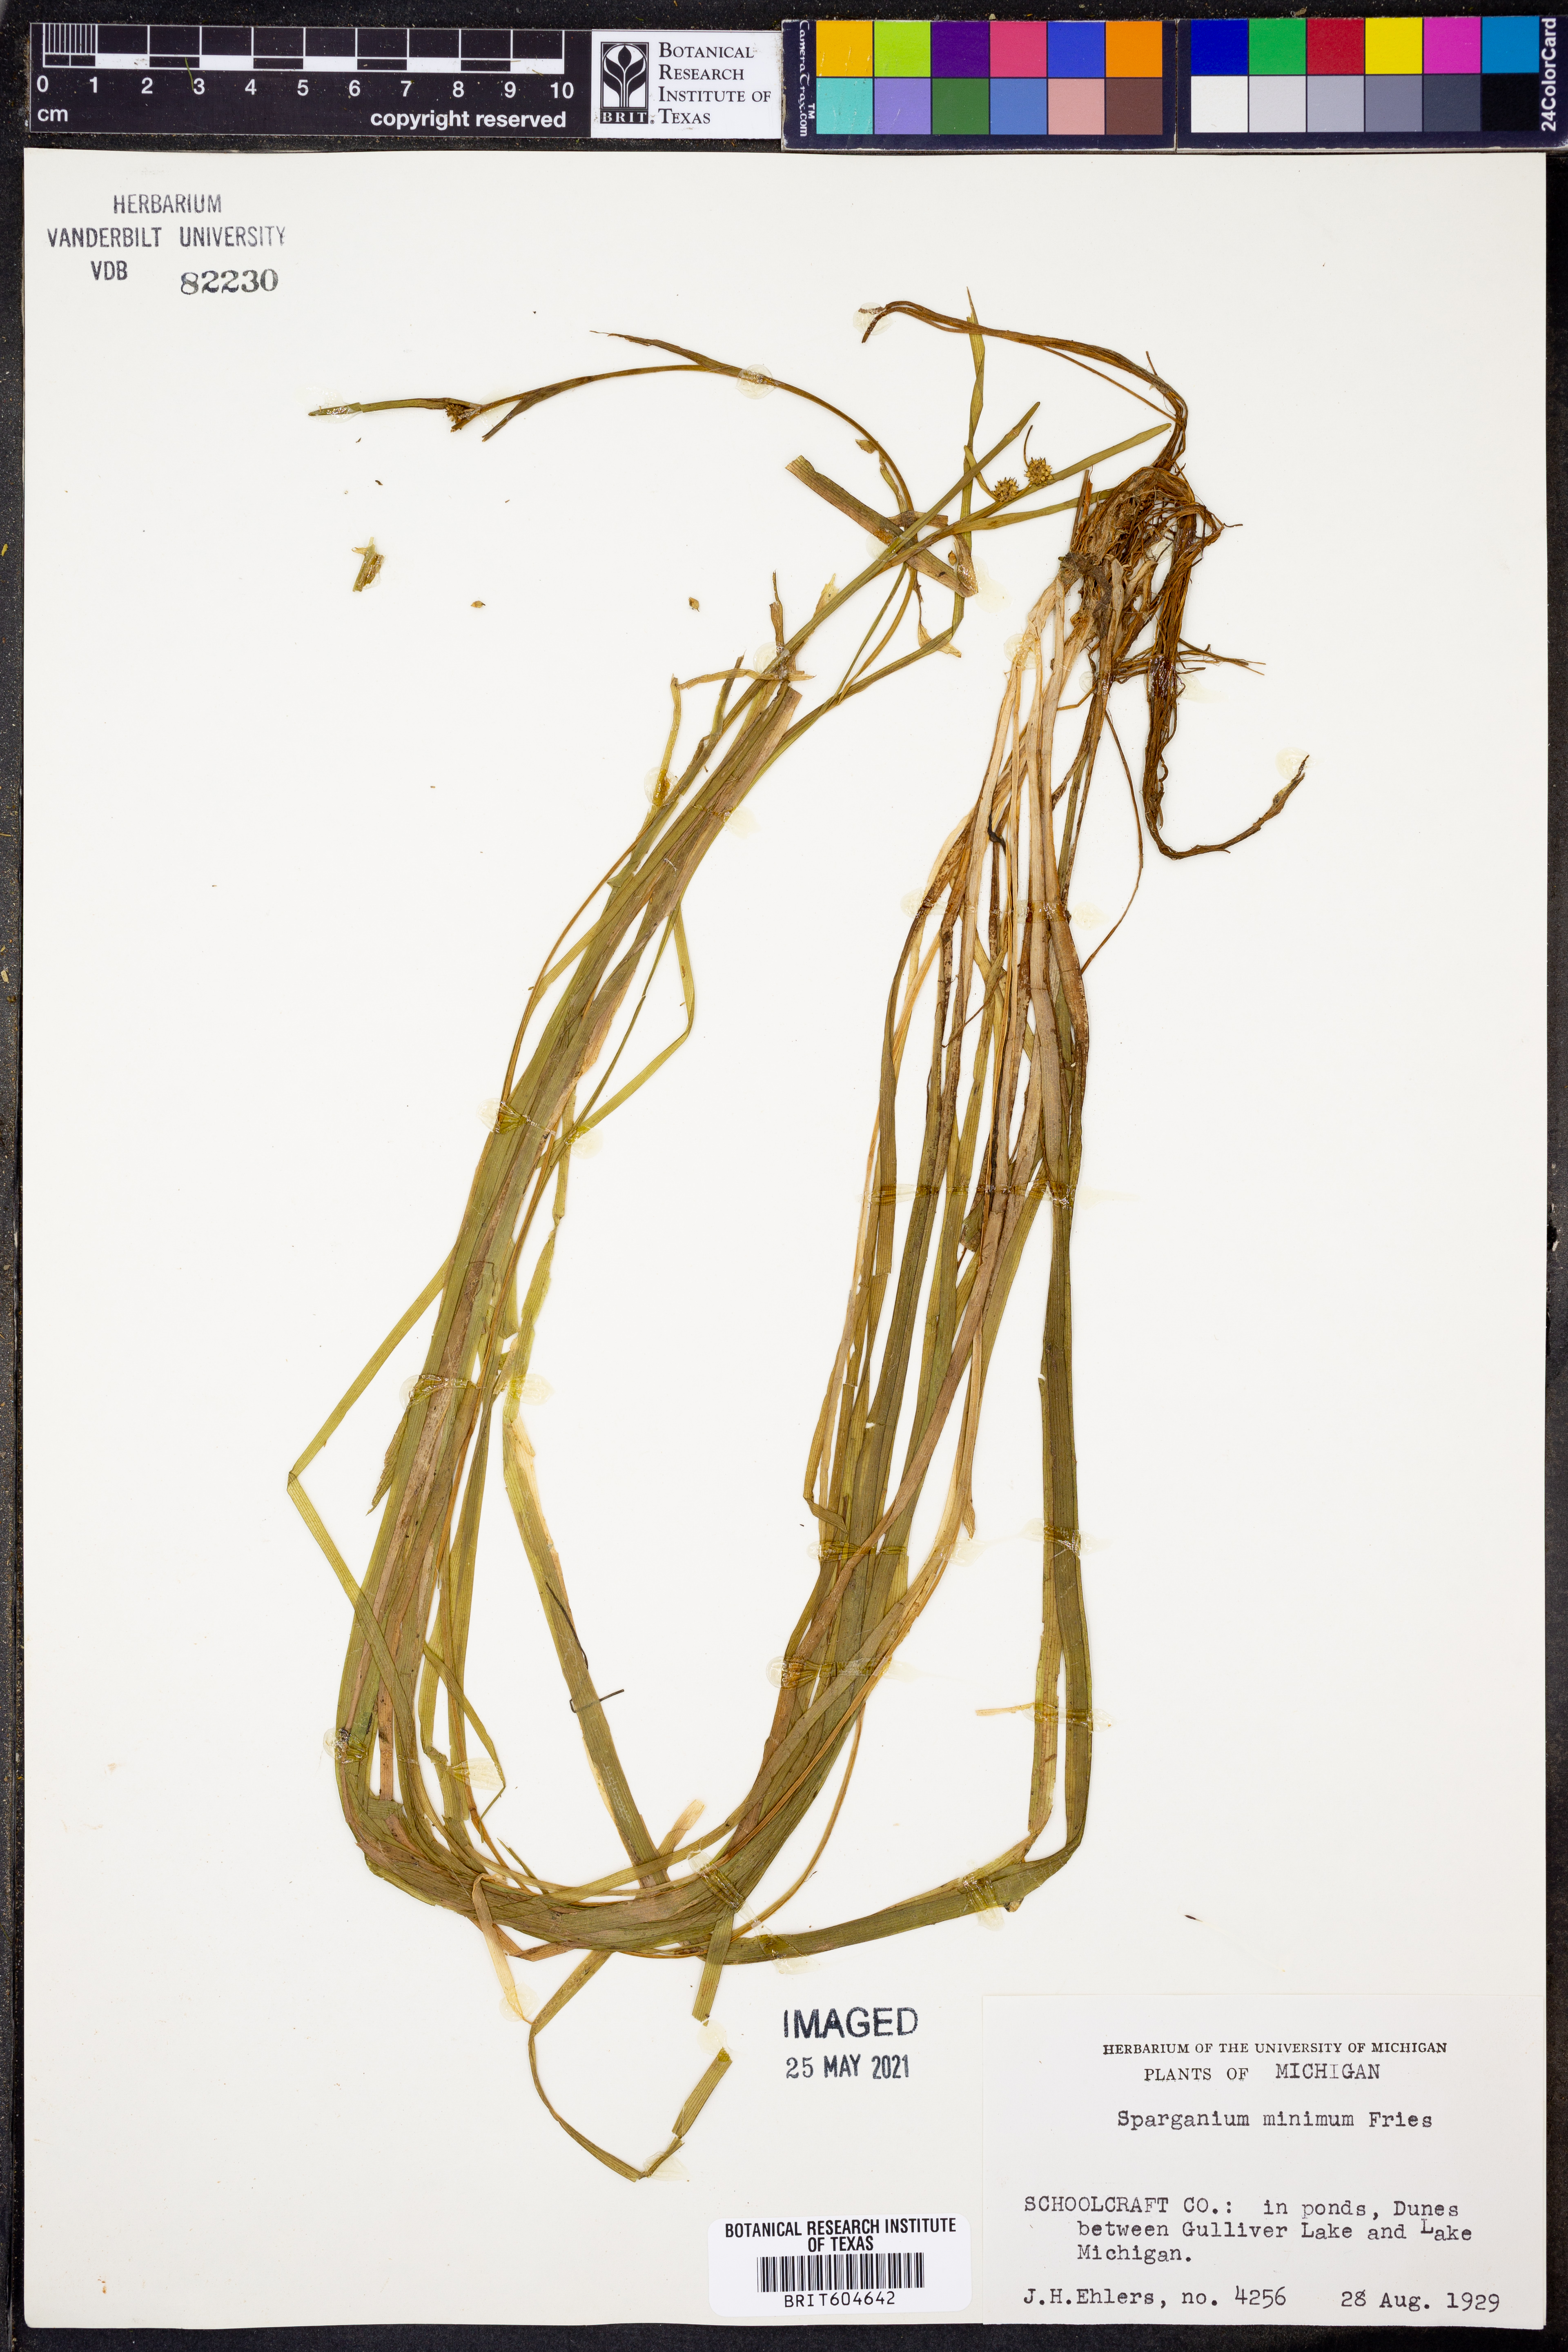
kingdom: Plantae
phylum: Tracheophyta
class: Liliopsida
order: Poales
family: Typhaceae
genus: Sparganium
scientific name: Sparganium natans
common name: Least bur-reed
